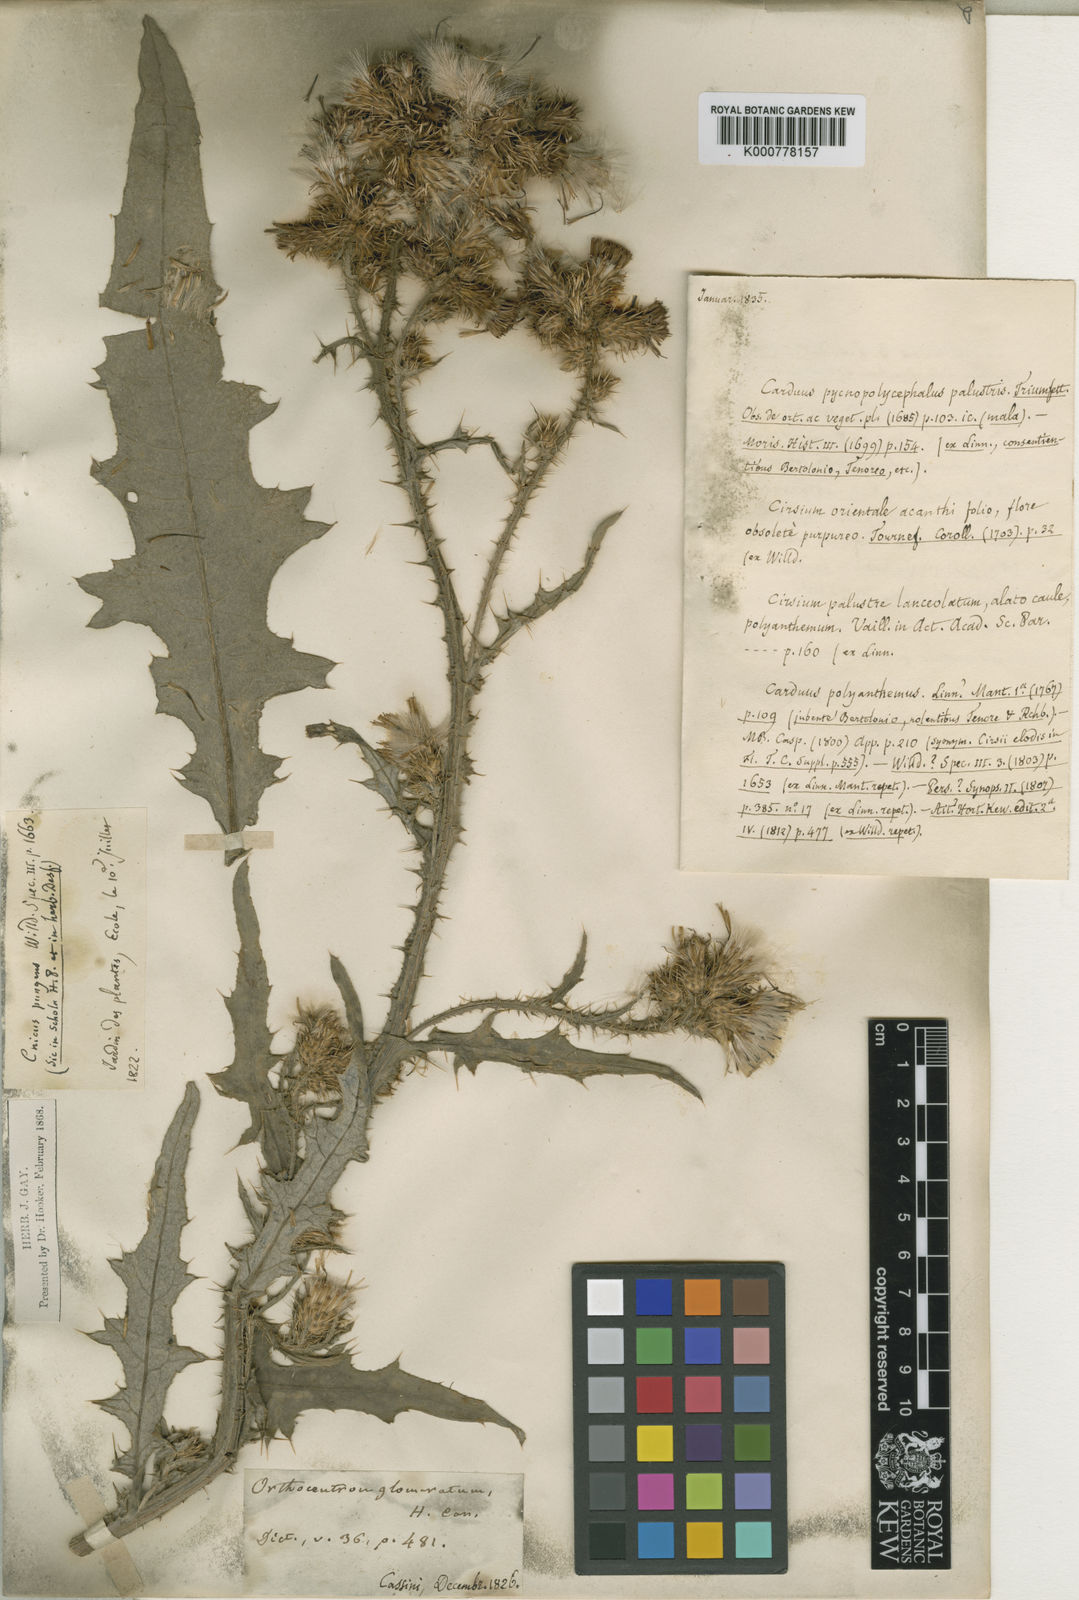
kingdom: Plantae
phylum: Tracheophyta
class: Magnoliopsida
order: Asterales
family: Asteraceae
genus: Cirsium
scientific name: Cirsium
